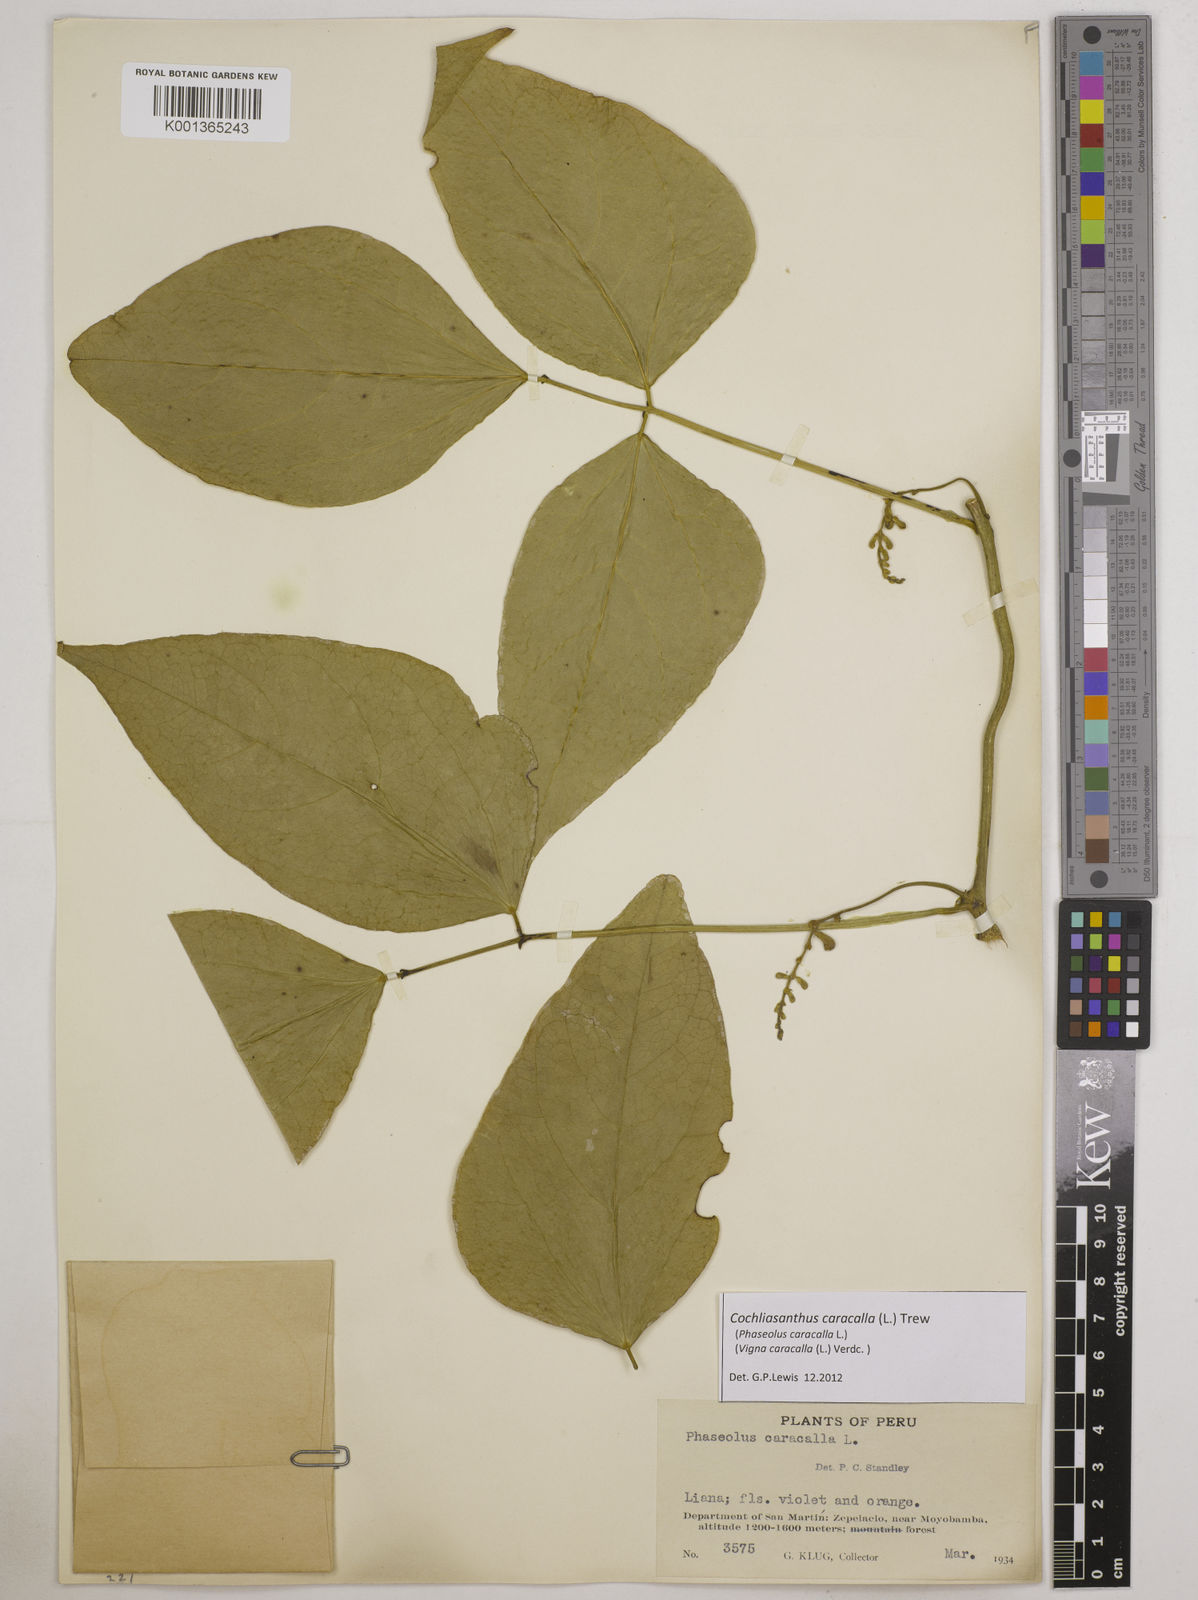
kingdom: Plantae
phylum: Tracheophyta
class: Magnoliopsida
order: Fabales
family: Fabaceae
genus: Cochliasanthus
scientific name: Cochliasanthus caracalla
